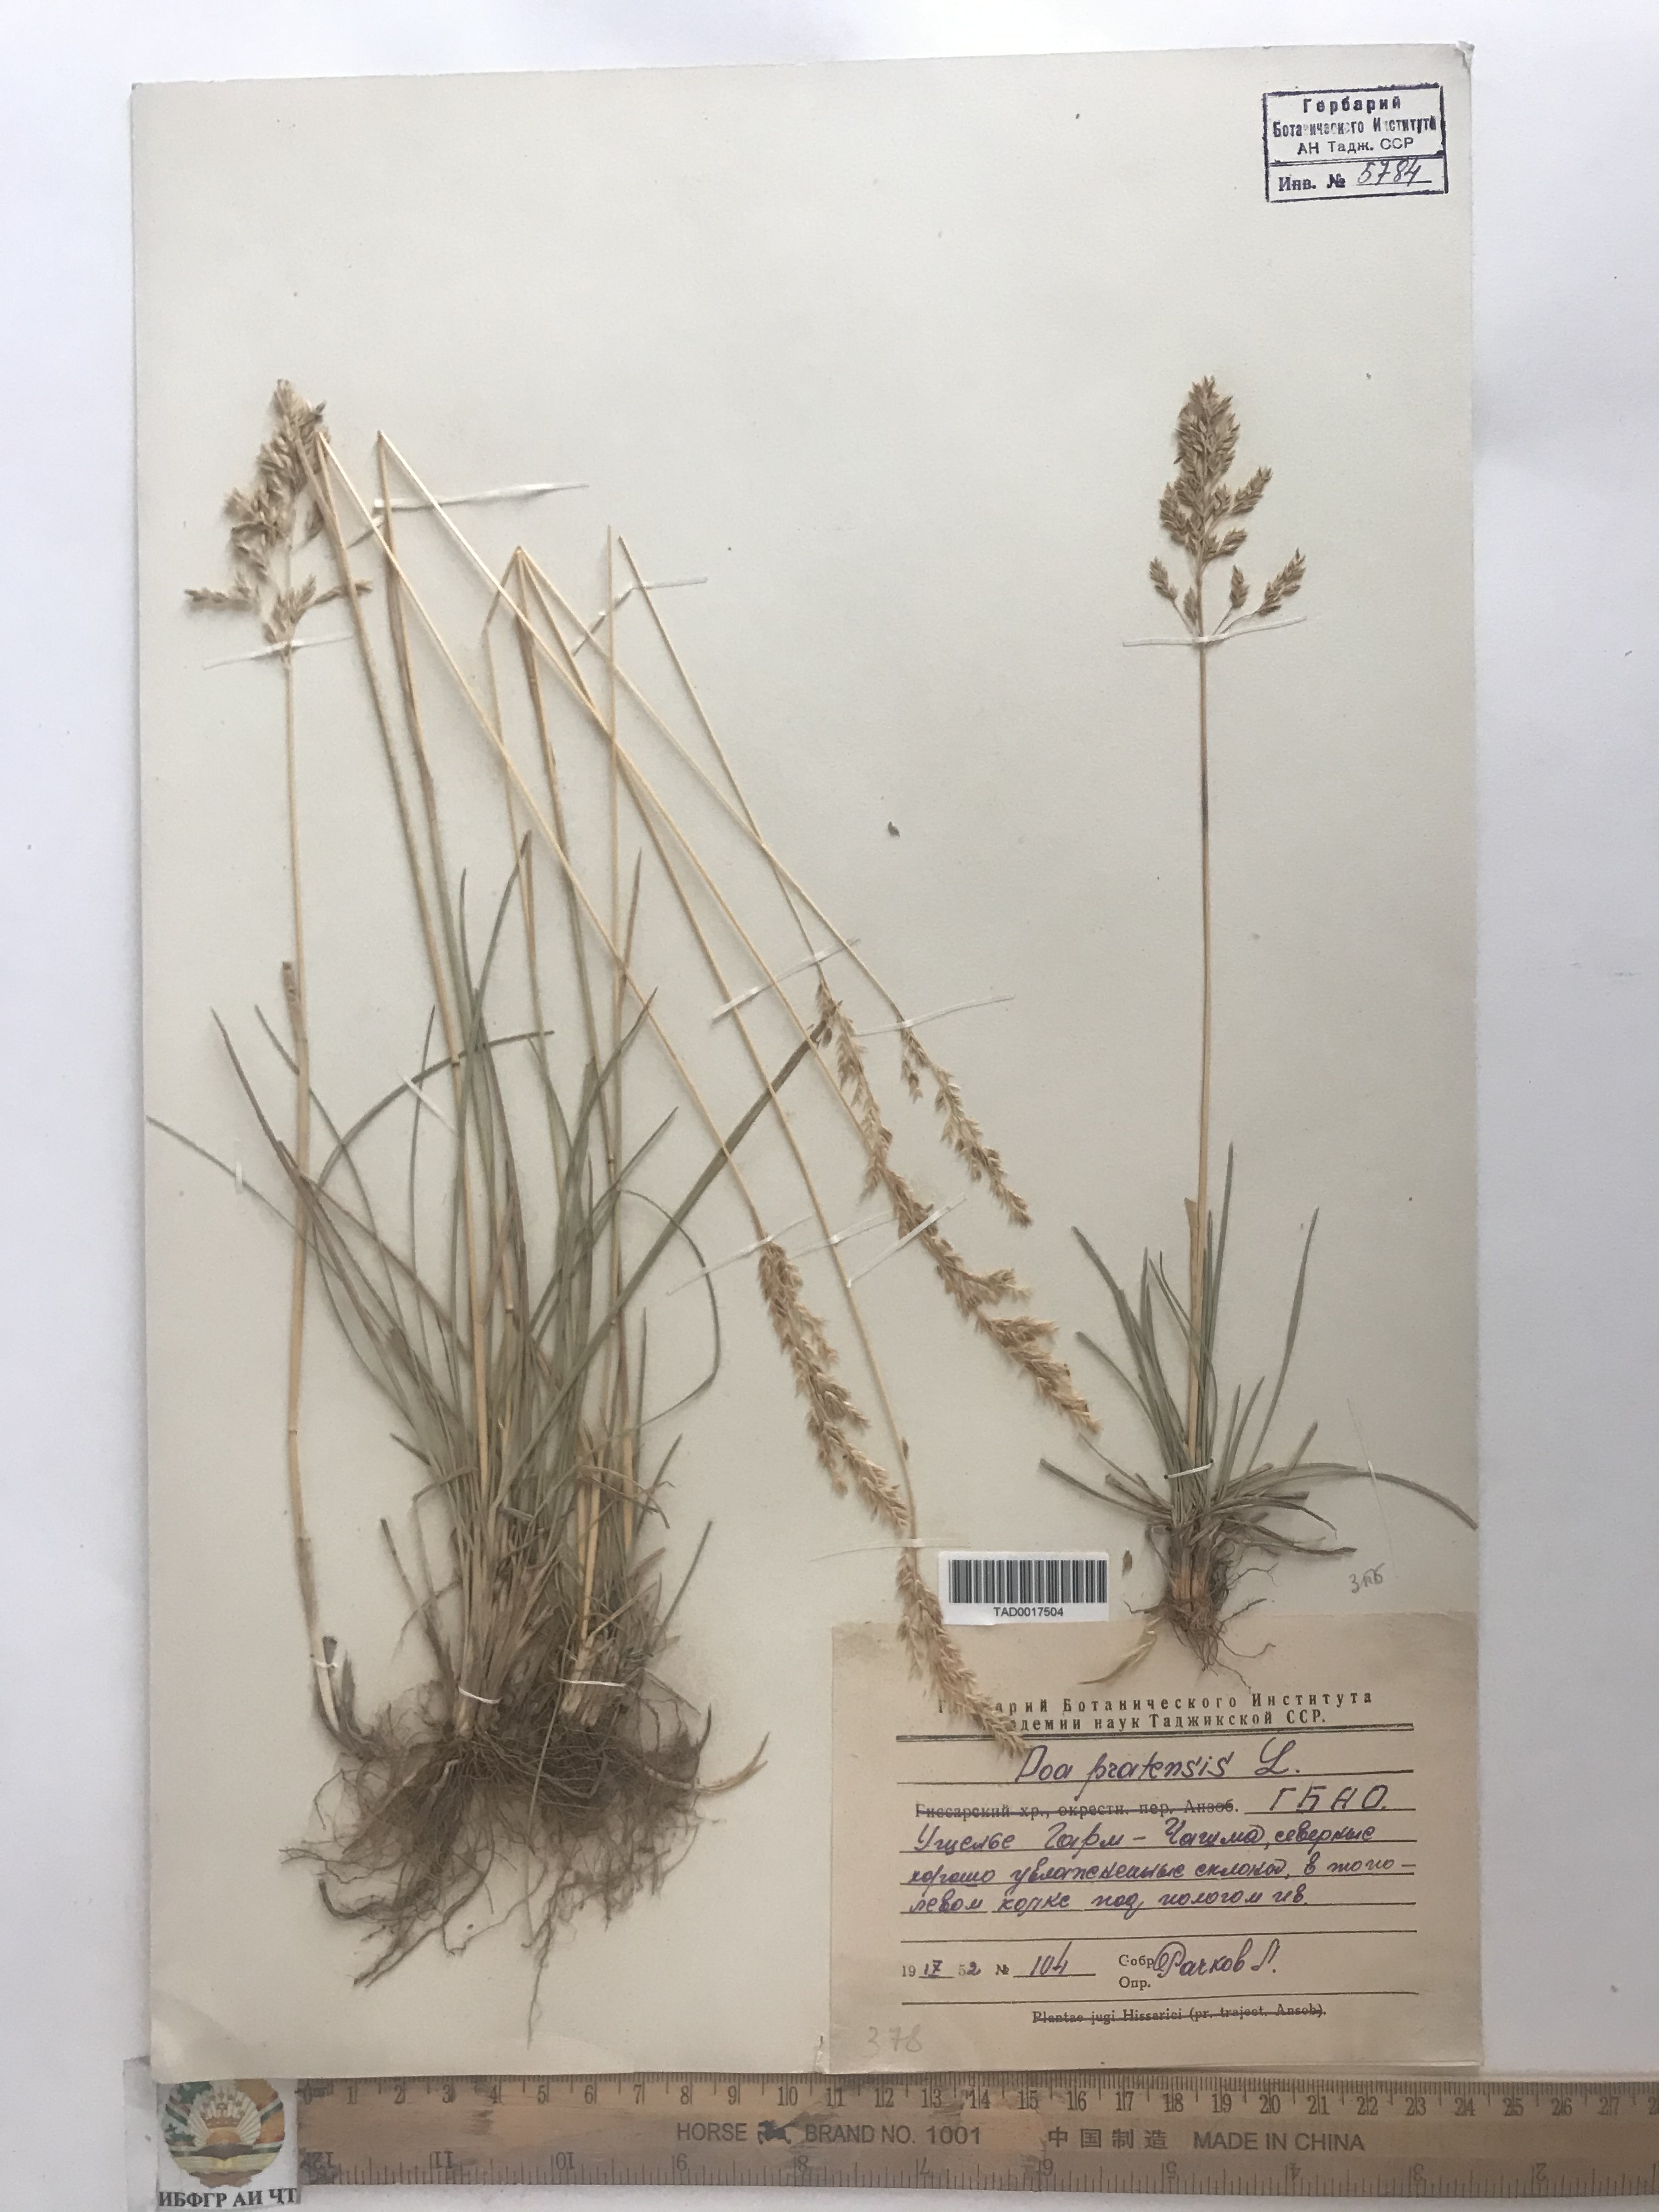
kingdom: Plantae
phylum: Tracheophyta
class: Liliopsida
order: Poales
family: Poaceae
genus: Poa
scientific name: Poa pratensis
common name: Kentucky bluegrass
